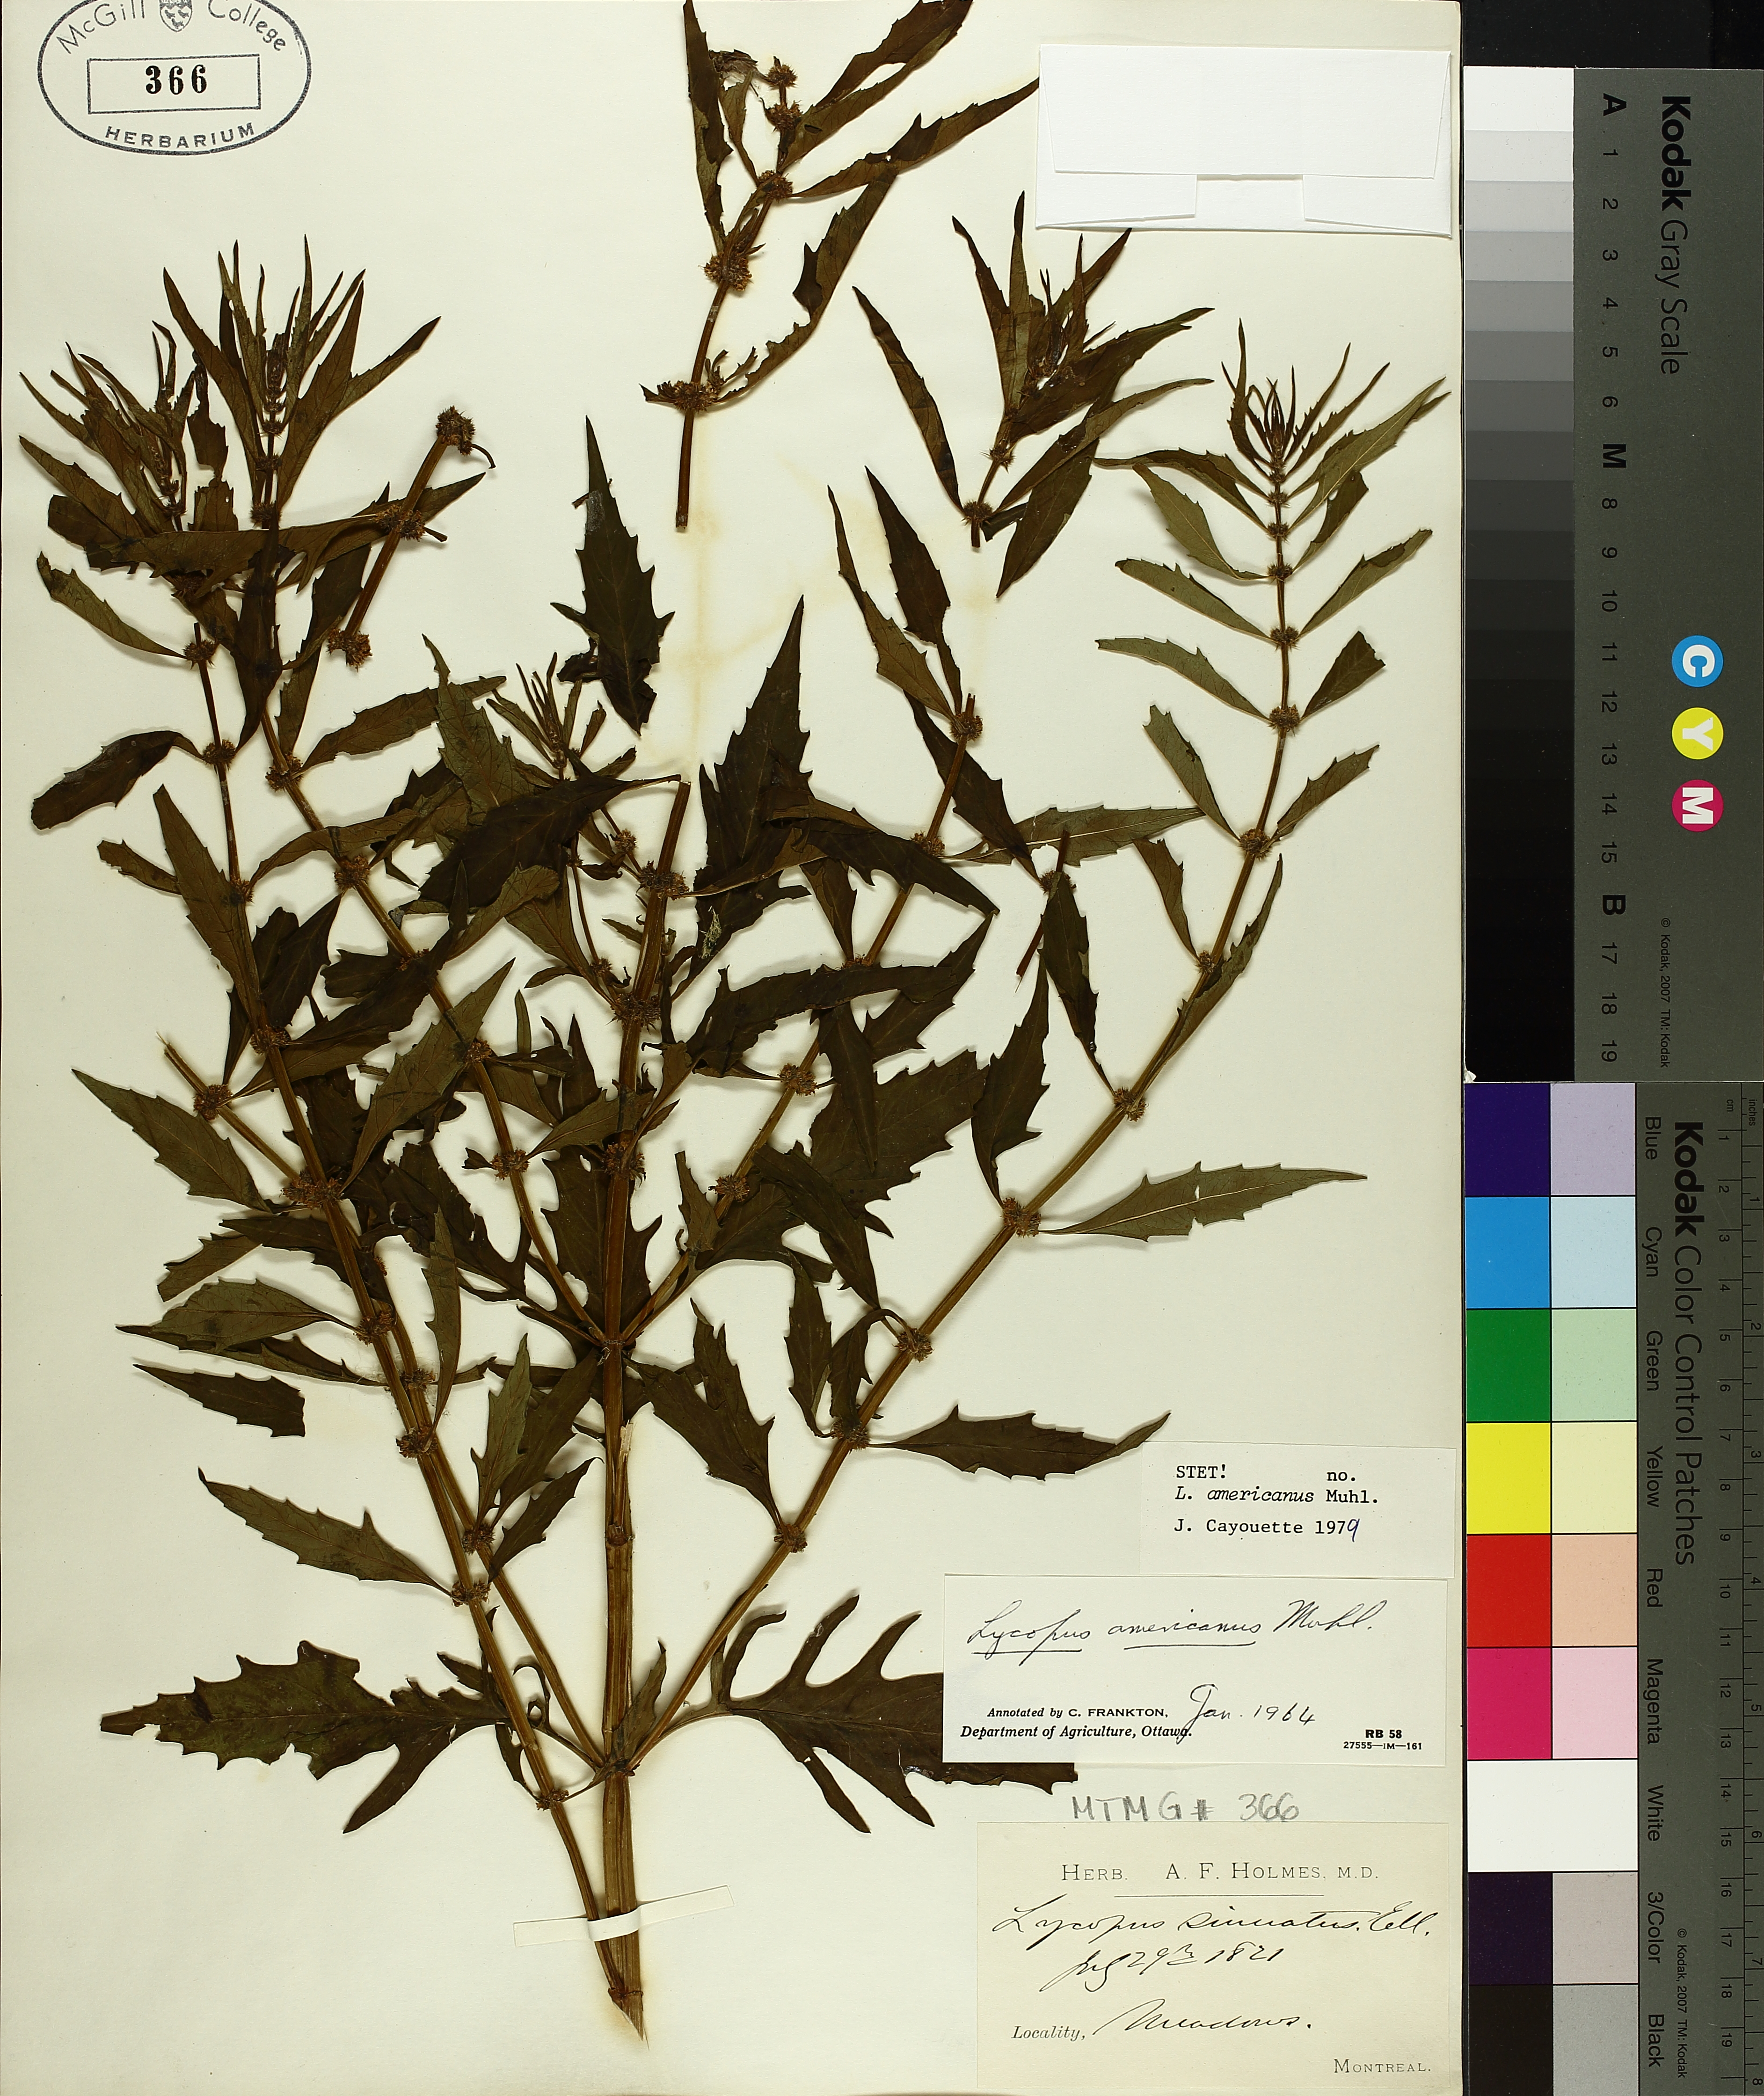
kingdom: Plantae
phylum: Tracheophyta
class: Magnoliopsida
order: Lamiales
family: Lamiaceae
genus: Lycopus
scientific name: Lycopus americanus
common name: American bugleweed
